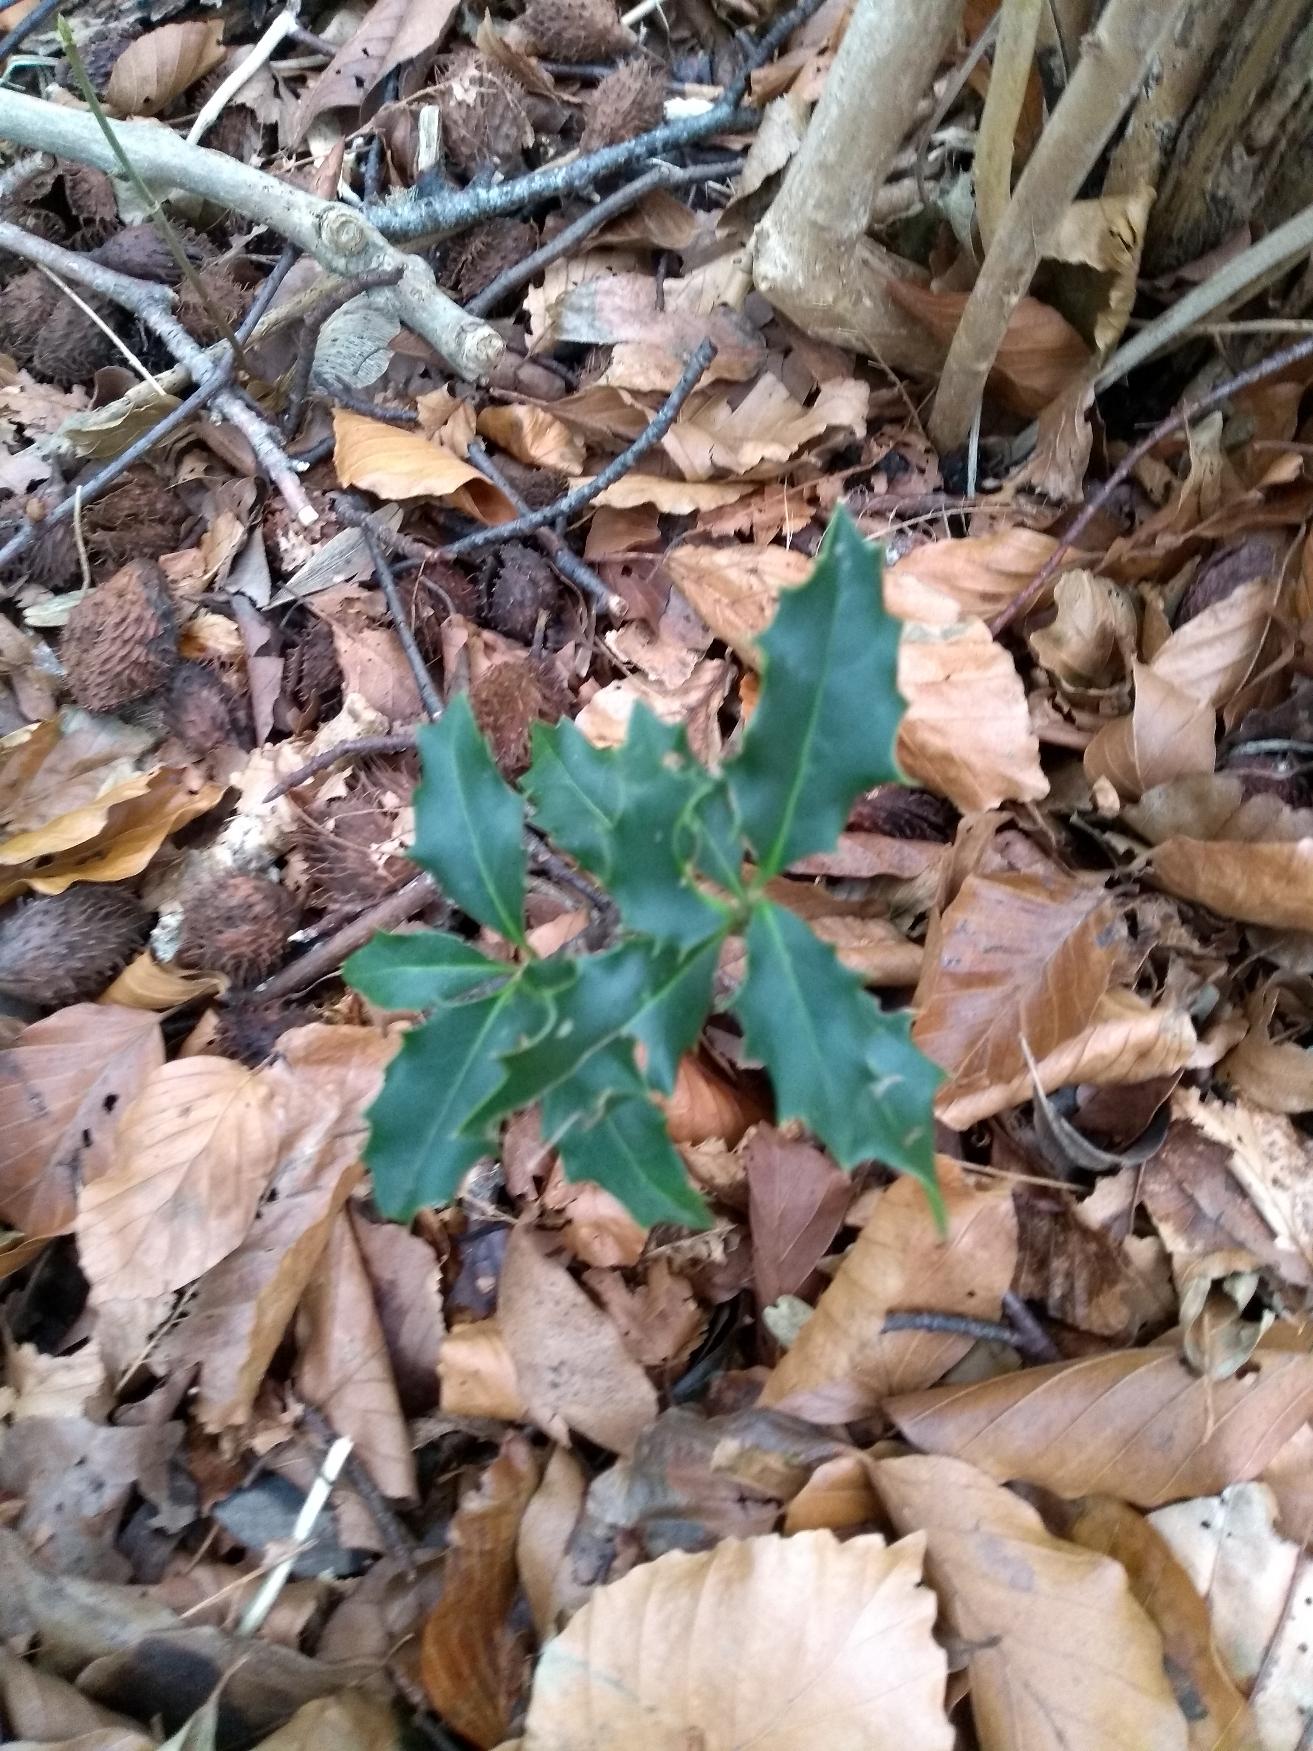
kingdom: Plantae
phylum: Tracheophyta
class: Magnoliopsida
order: Aquifoliales
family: Aquifoliaceae
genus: Ilex
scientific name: Ilex aquifolium
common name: Kristtorn
